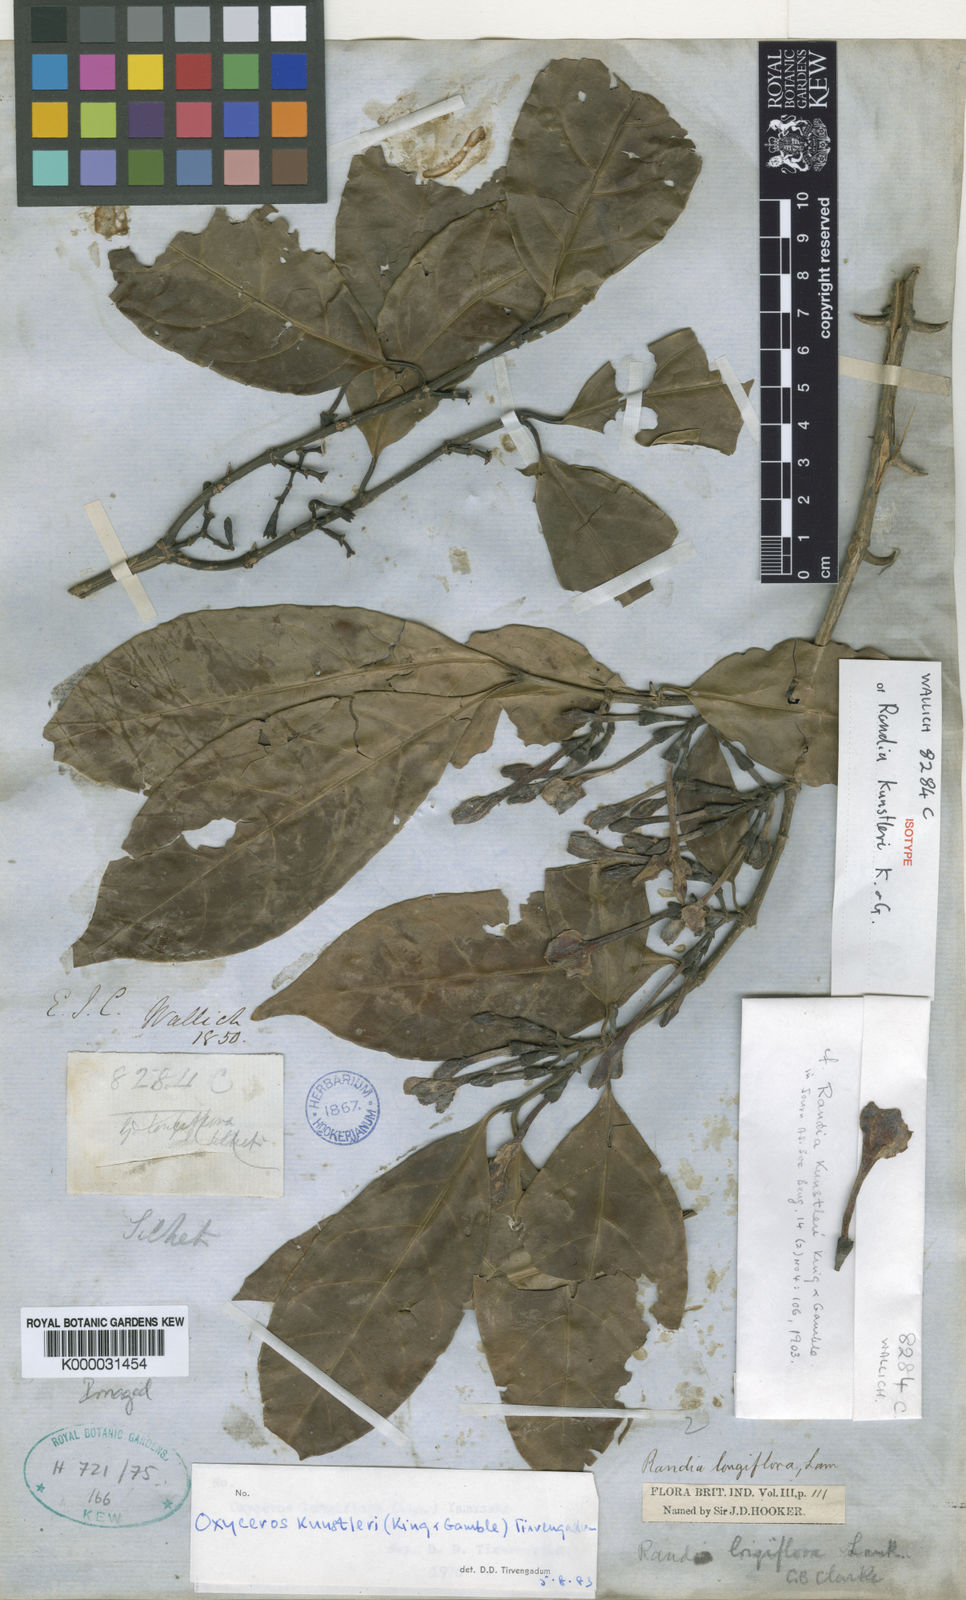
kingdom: Plantae
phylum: Tracheophyta
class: Magnoliopsida
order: Gentianales
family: Rubiaceae
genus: Oxyceros
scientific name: Oxyceros kunstleri
